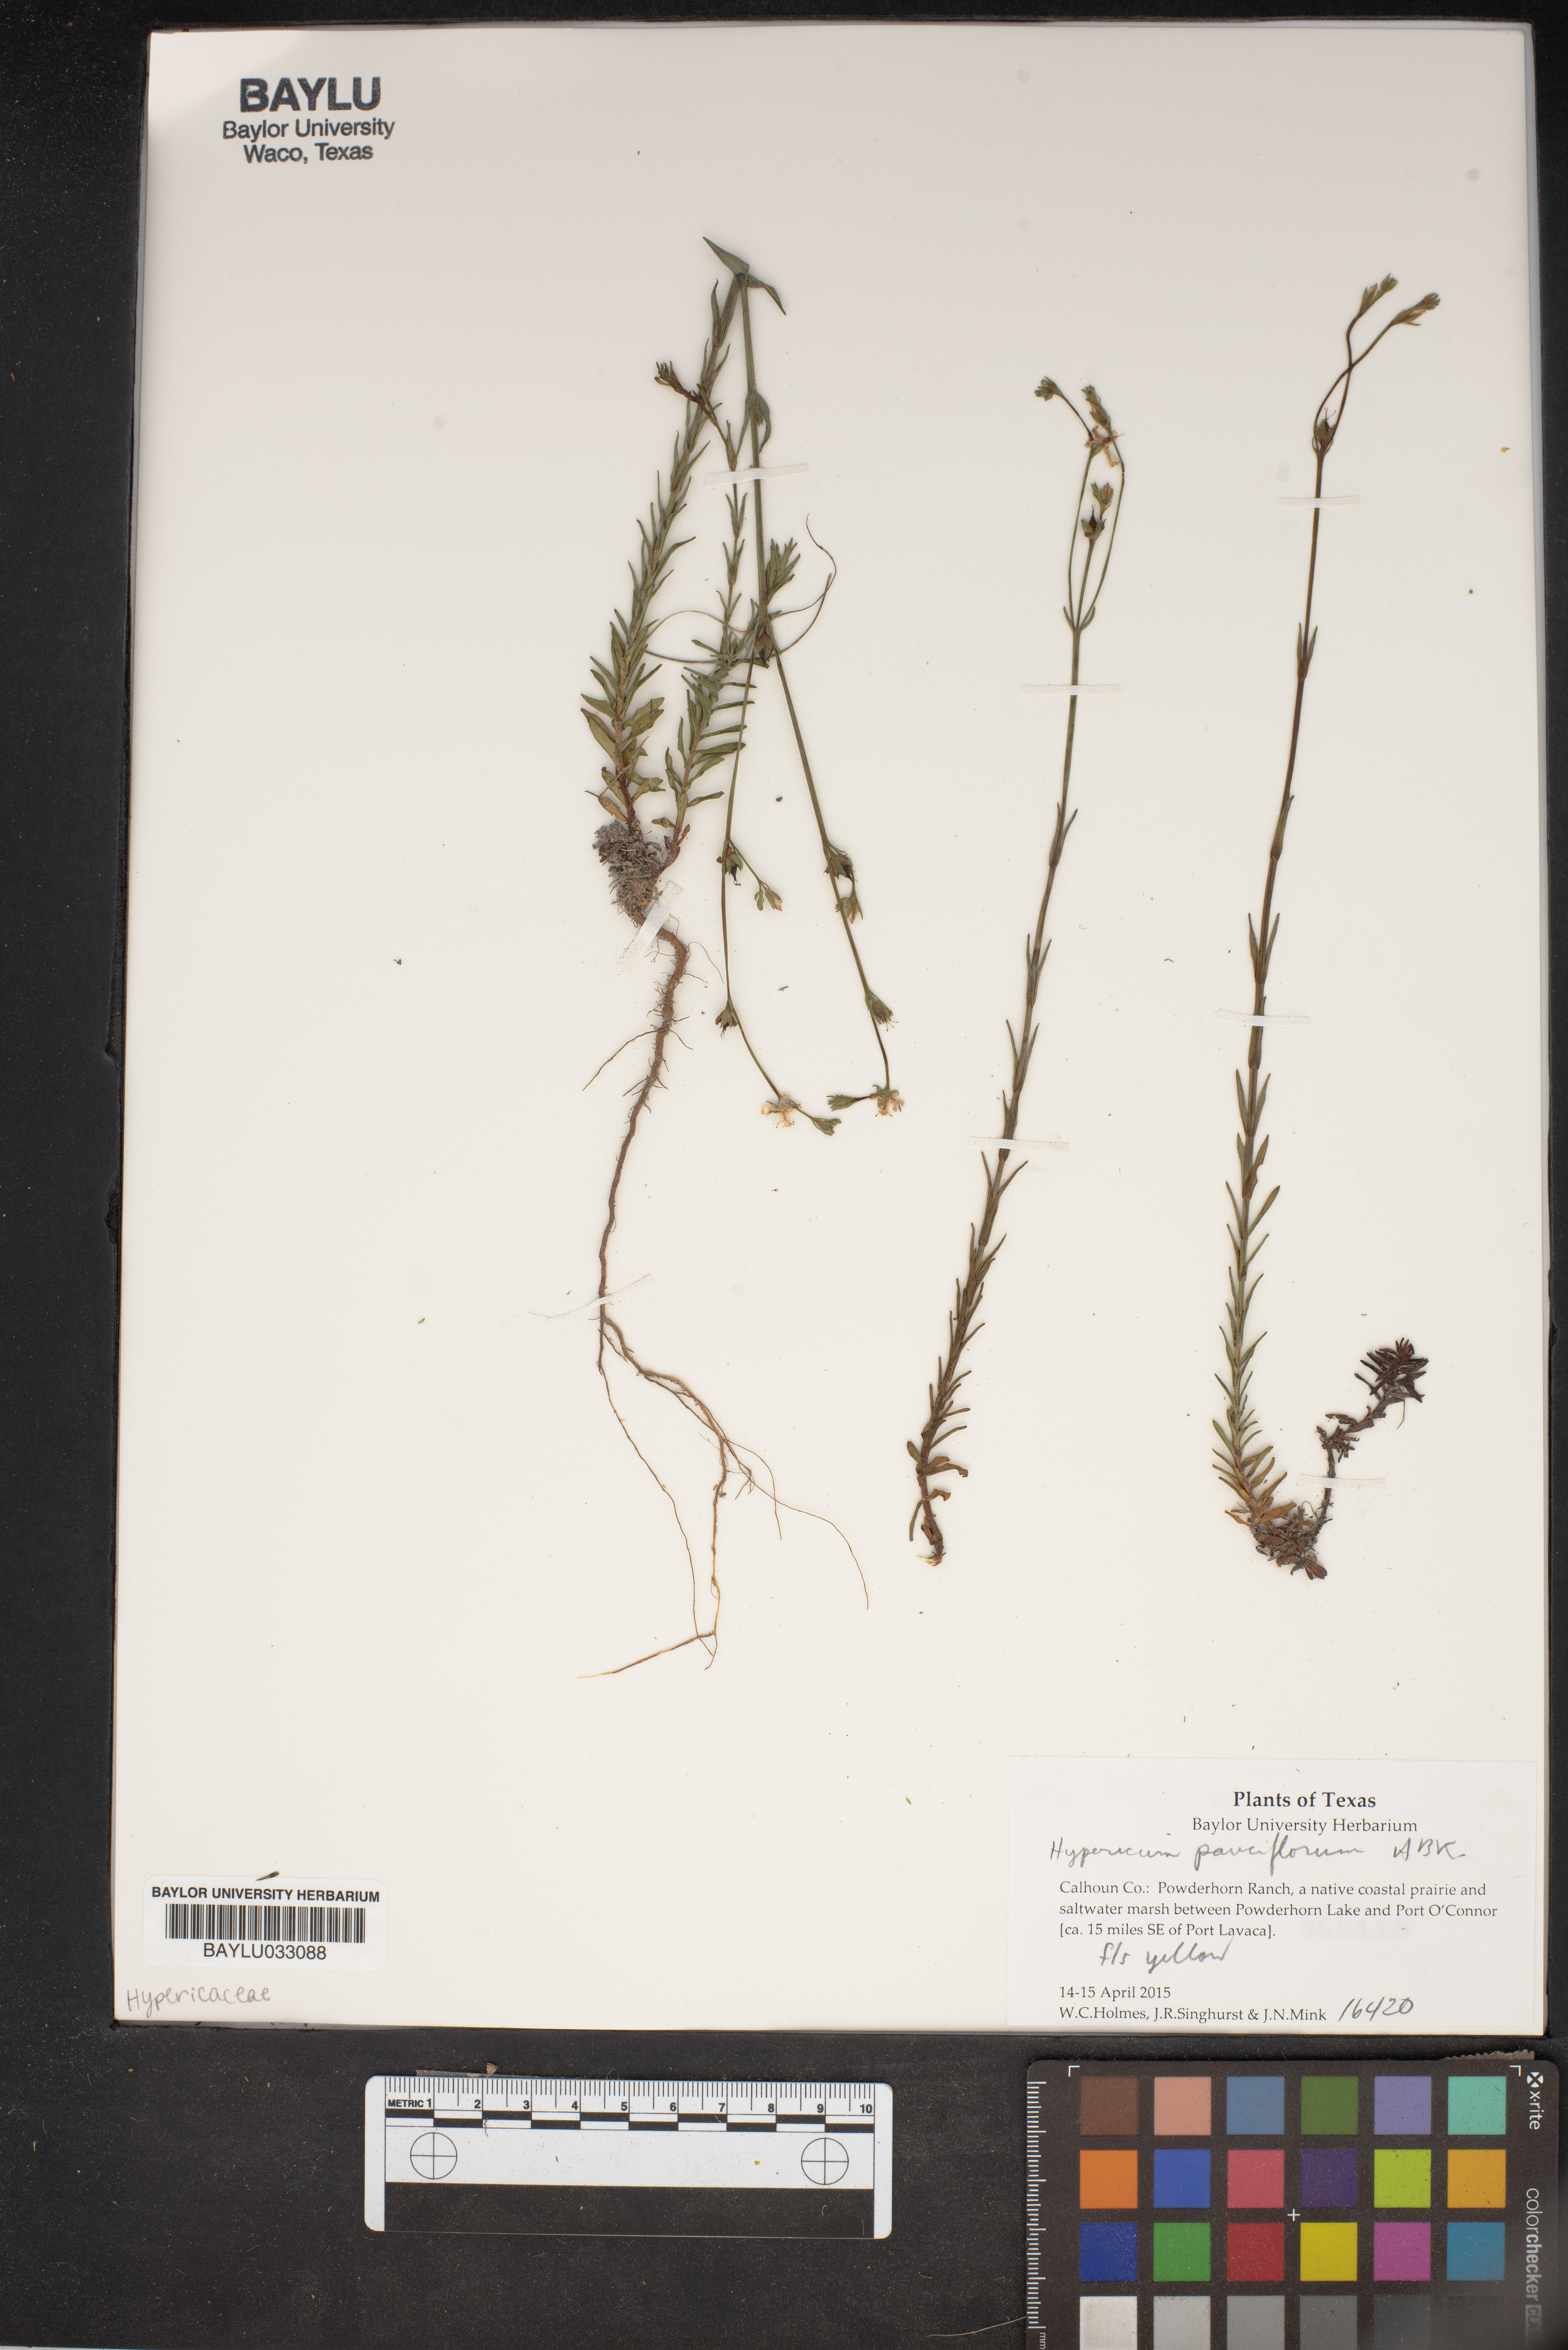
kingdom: Plantae
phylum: Tracheophyta
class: Magnoliopsida
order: Malpighiales
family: Hypericaceae
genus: Hypericum
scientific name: Hypericum crux-andreae
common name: St.-peter's-wort
